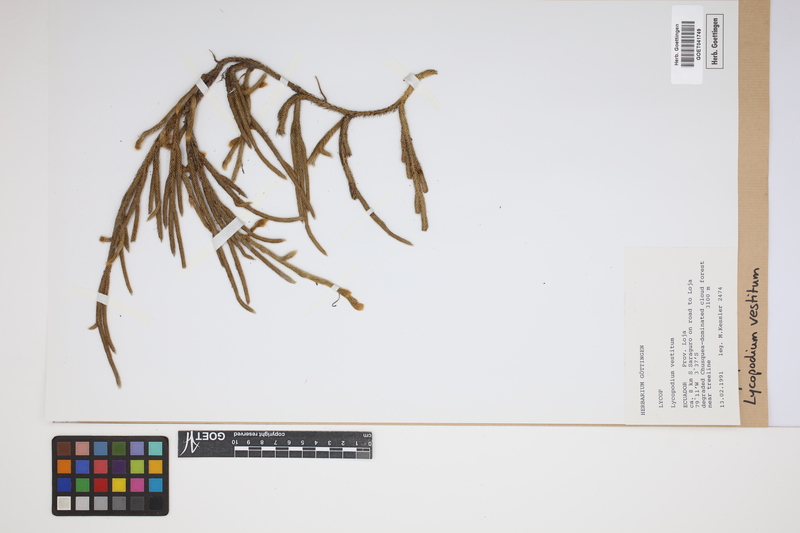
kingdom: Plantae
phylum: Tracheophyta
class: Lycopodiopsida
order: Lycopodiales
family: Lycopodiaceae
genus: Lycopodium
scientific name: Lycopodium vestitum
